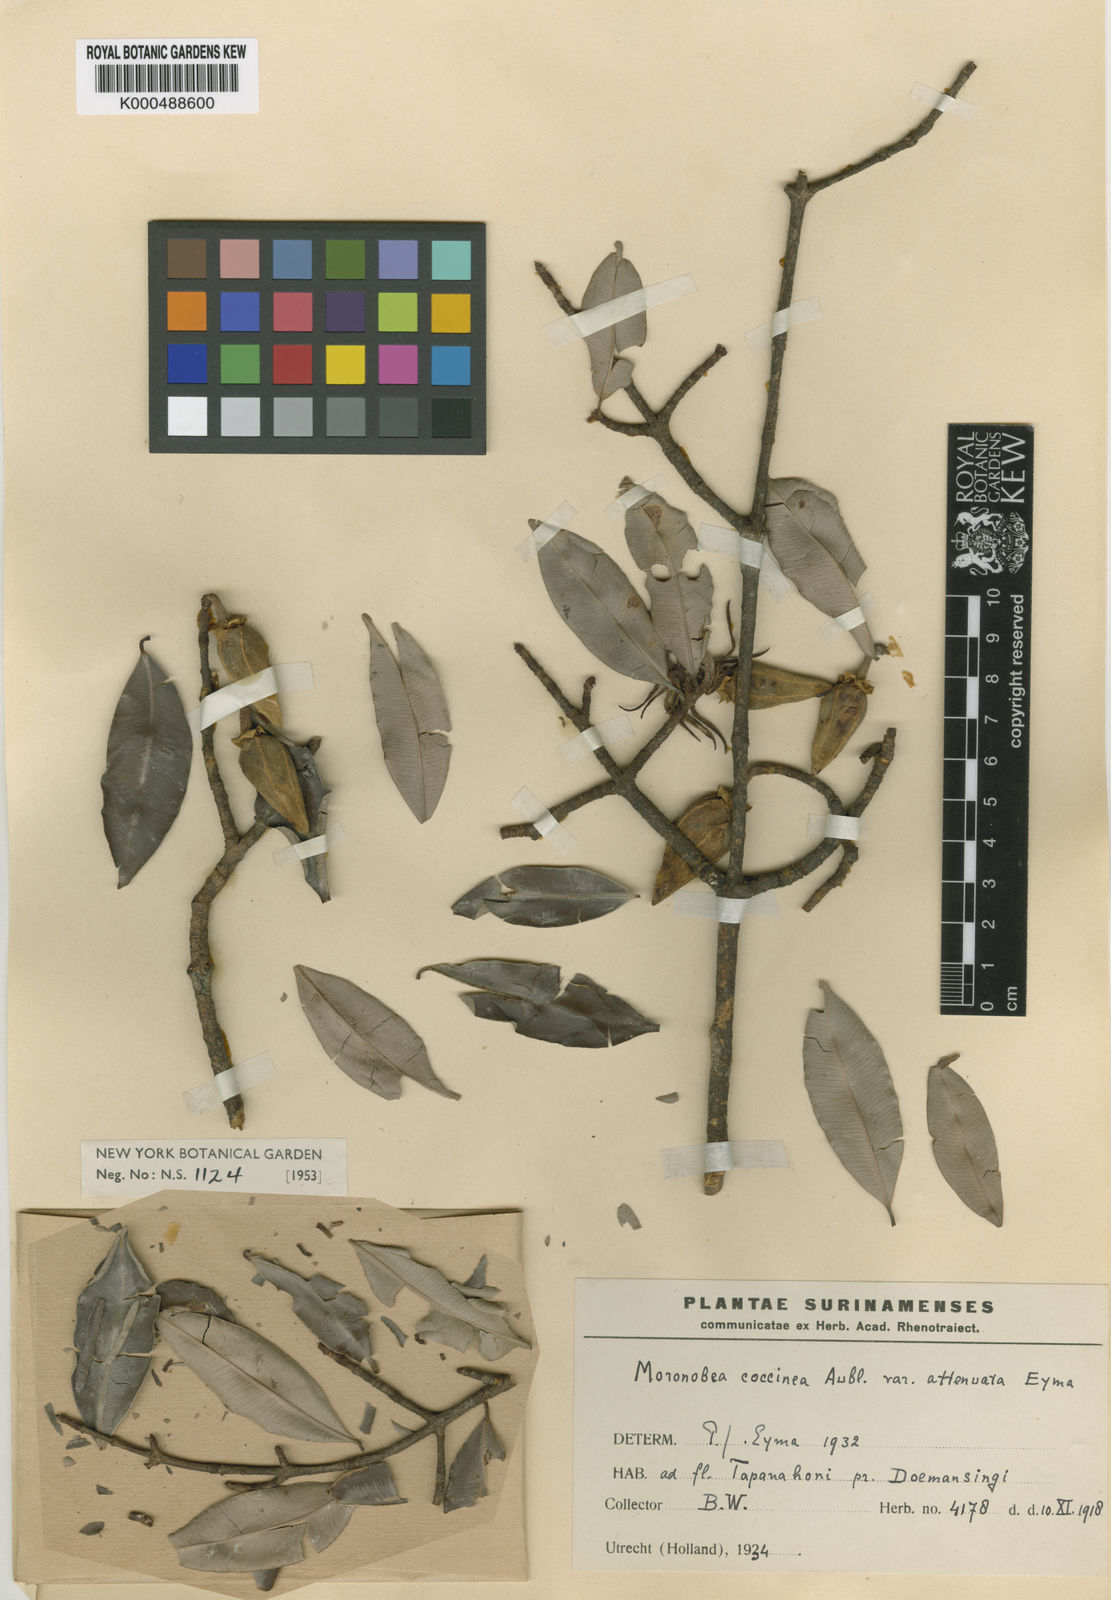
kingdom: Plantae
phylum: Tracheophyta
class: Magnoliopsida
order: Malpighiales
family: Clusiaceae
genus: Moronobea
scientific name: Moronobea coccinea
